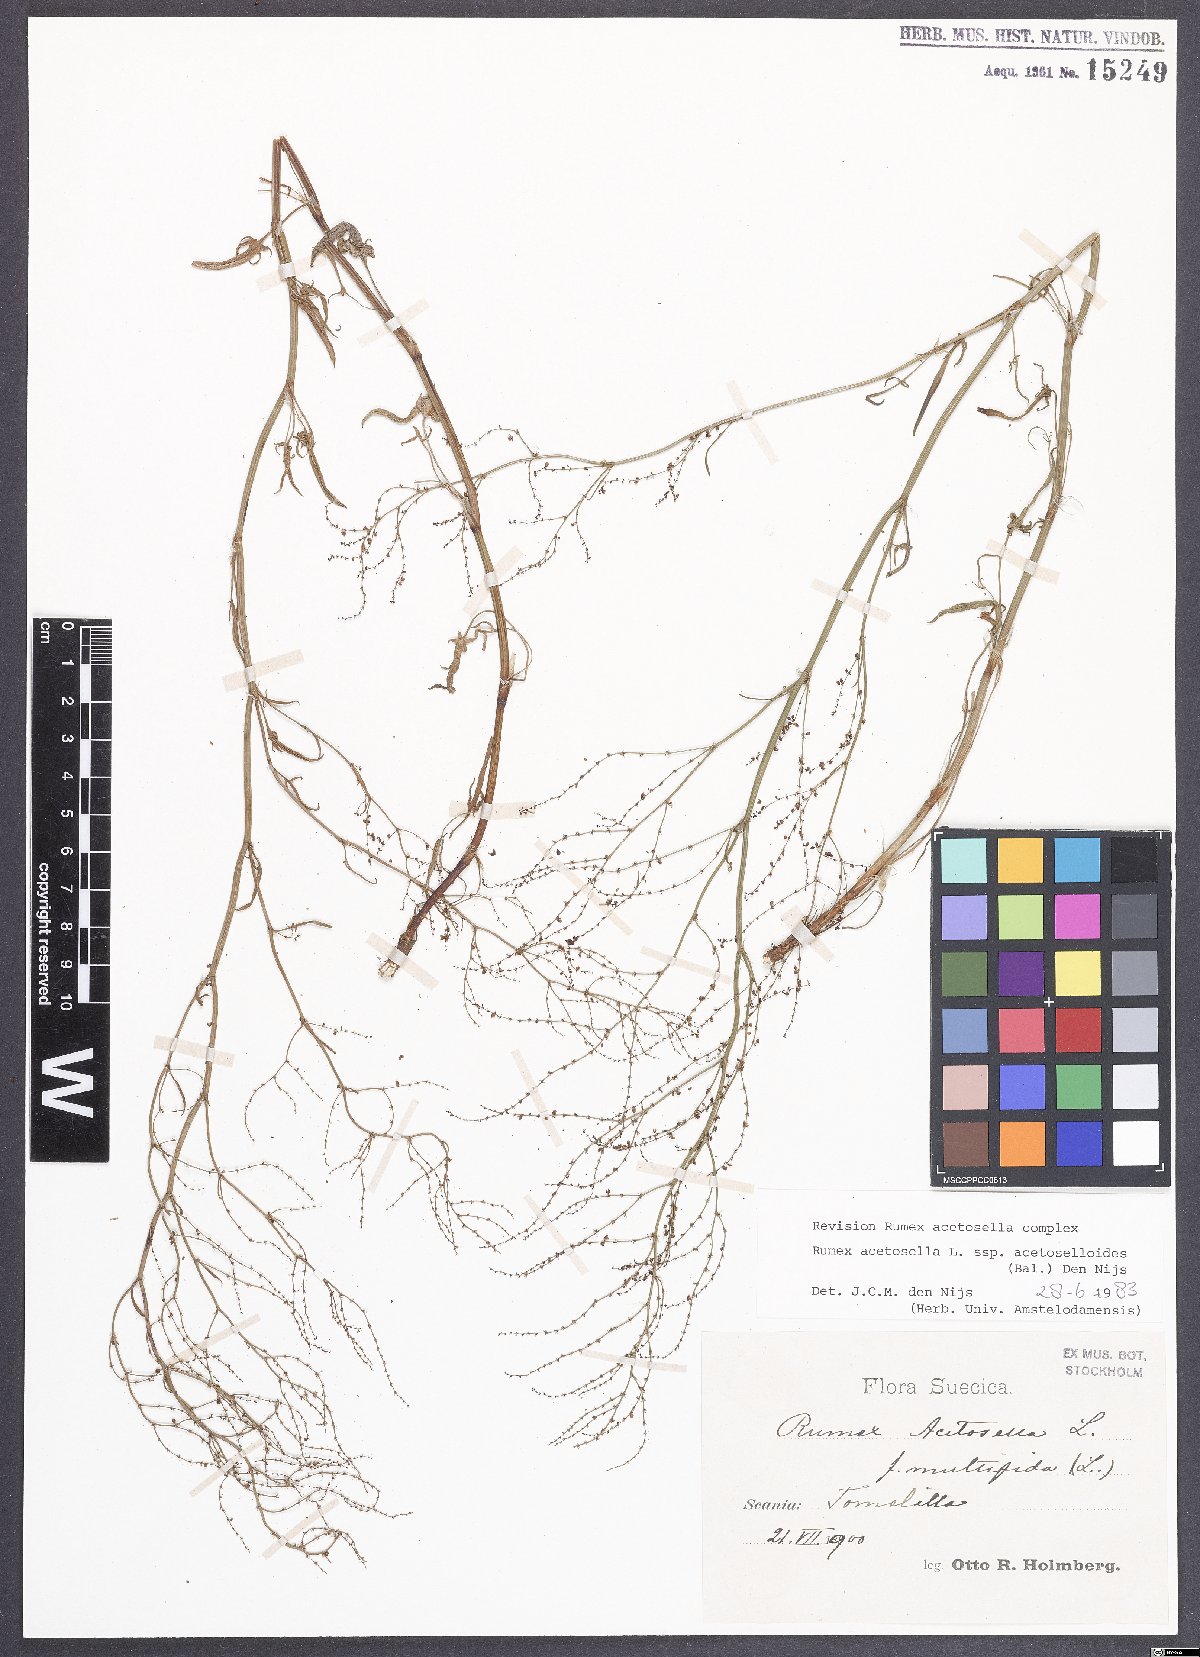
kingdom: Plantae
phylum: Tracheophyta
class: Magnoliopsida
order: Caryophyllales
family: Polygonaceae
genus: Rumex
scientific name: Rumex acetosella
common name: Common sheep sorrel
